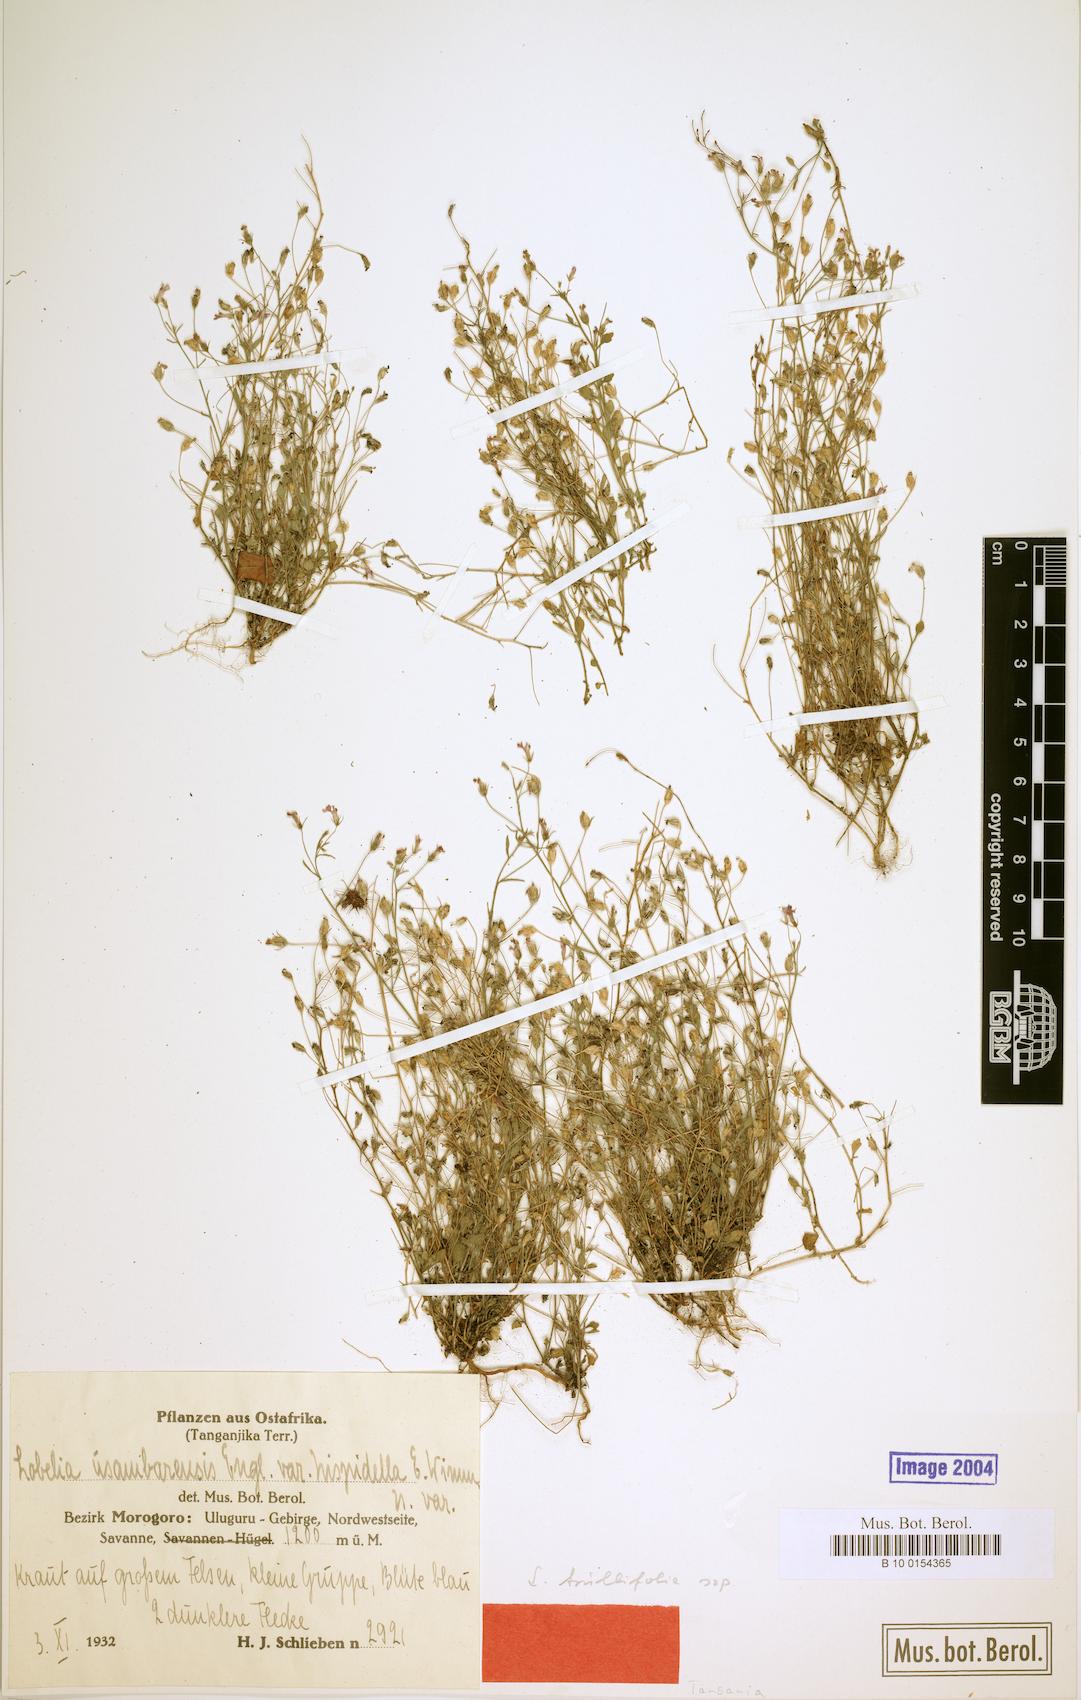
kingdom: Plantae
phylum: Tracheophyta
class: Magnoliopsida
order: Asterales
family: Campanulaceae
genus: Lobelia
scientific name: Lobelia trullifolia
